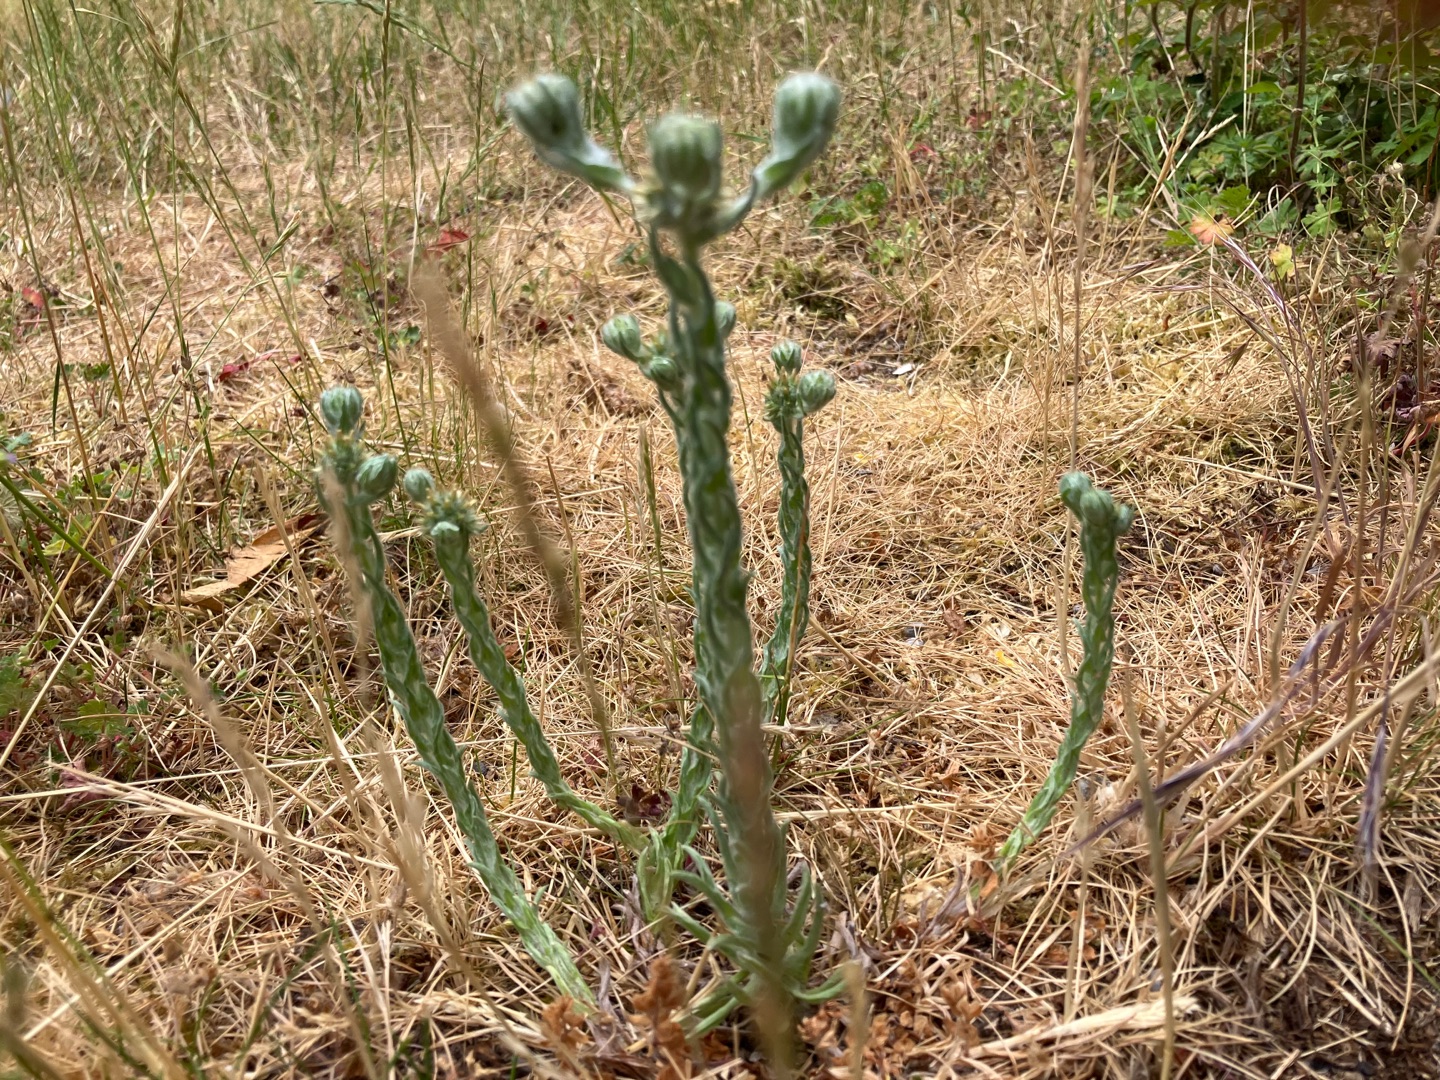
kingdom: Plantae
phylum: Tracheophyta
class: Magnoliopsida
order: Asterales
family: Asteraceae
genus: Filago
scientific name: Filago germanica
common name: Kugle-museurt
